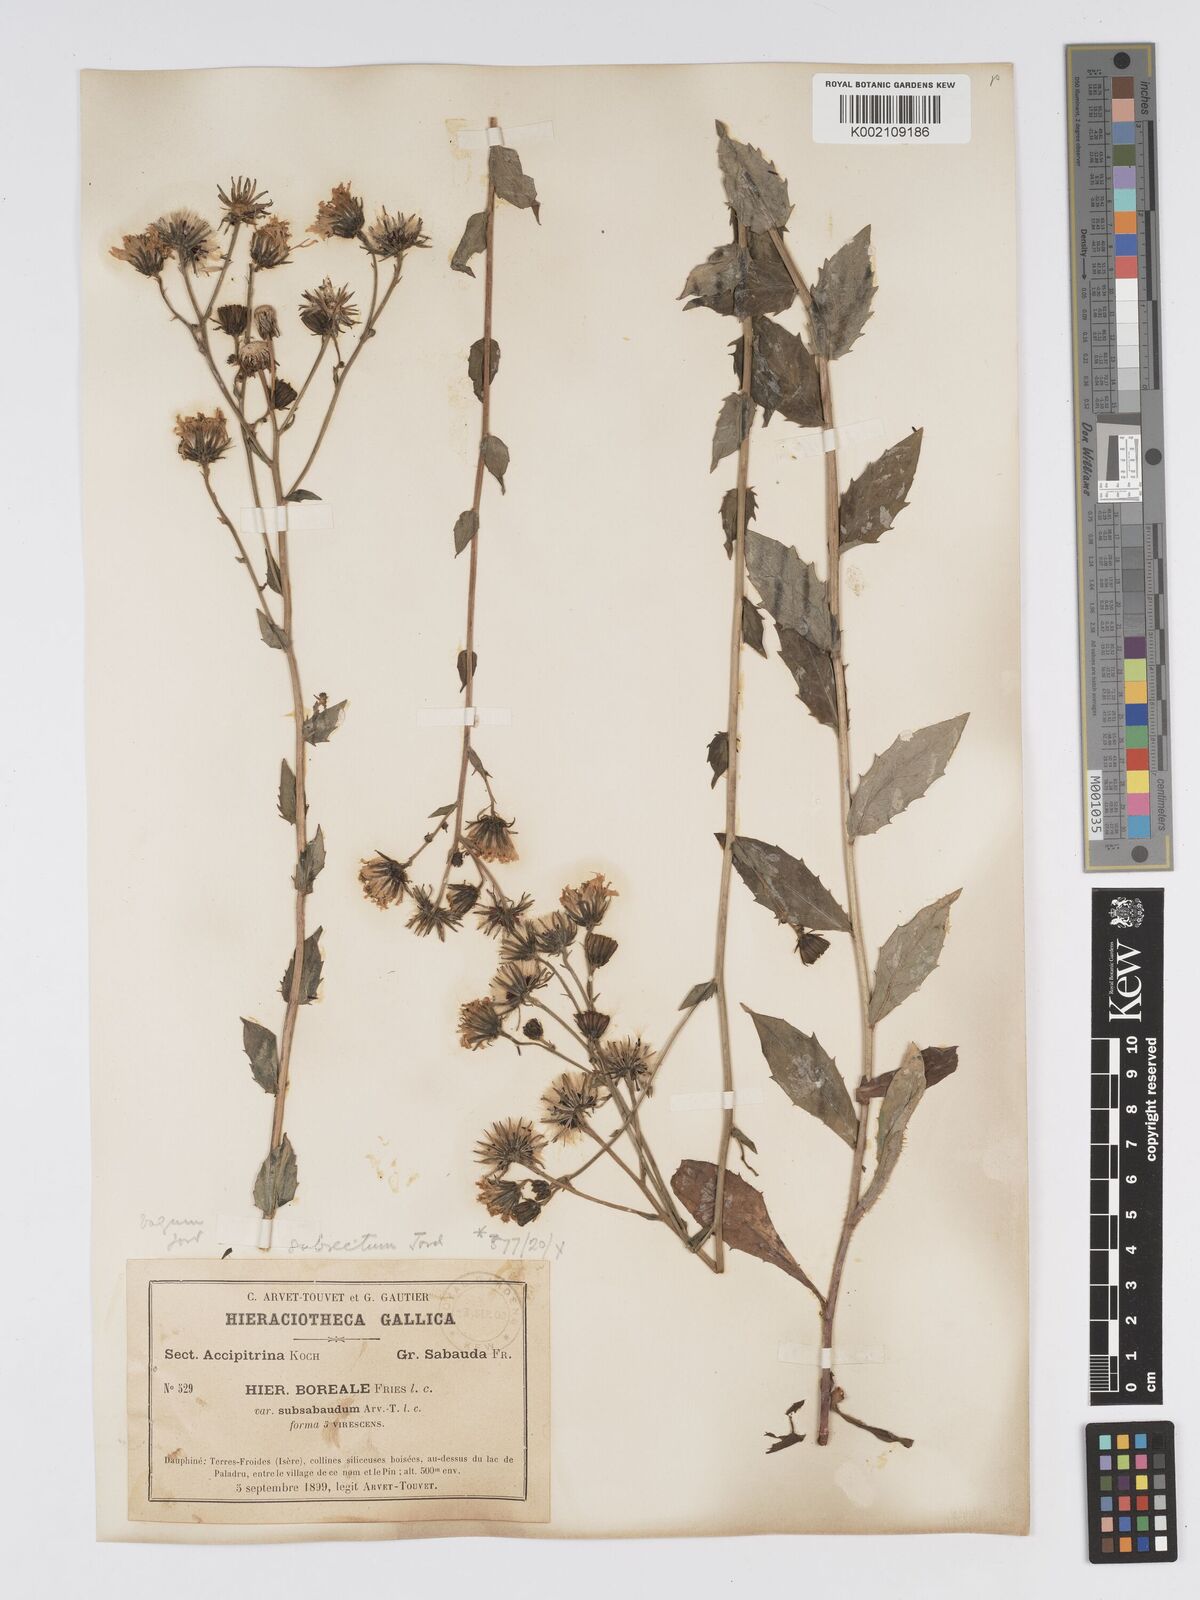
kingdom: Plantae
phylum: Tracheophyta
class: Magnoliopsida
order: Asterales
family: Asteraceae
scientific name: Asteraceae
